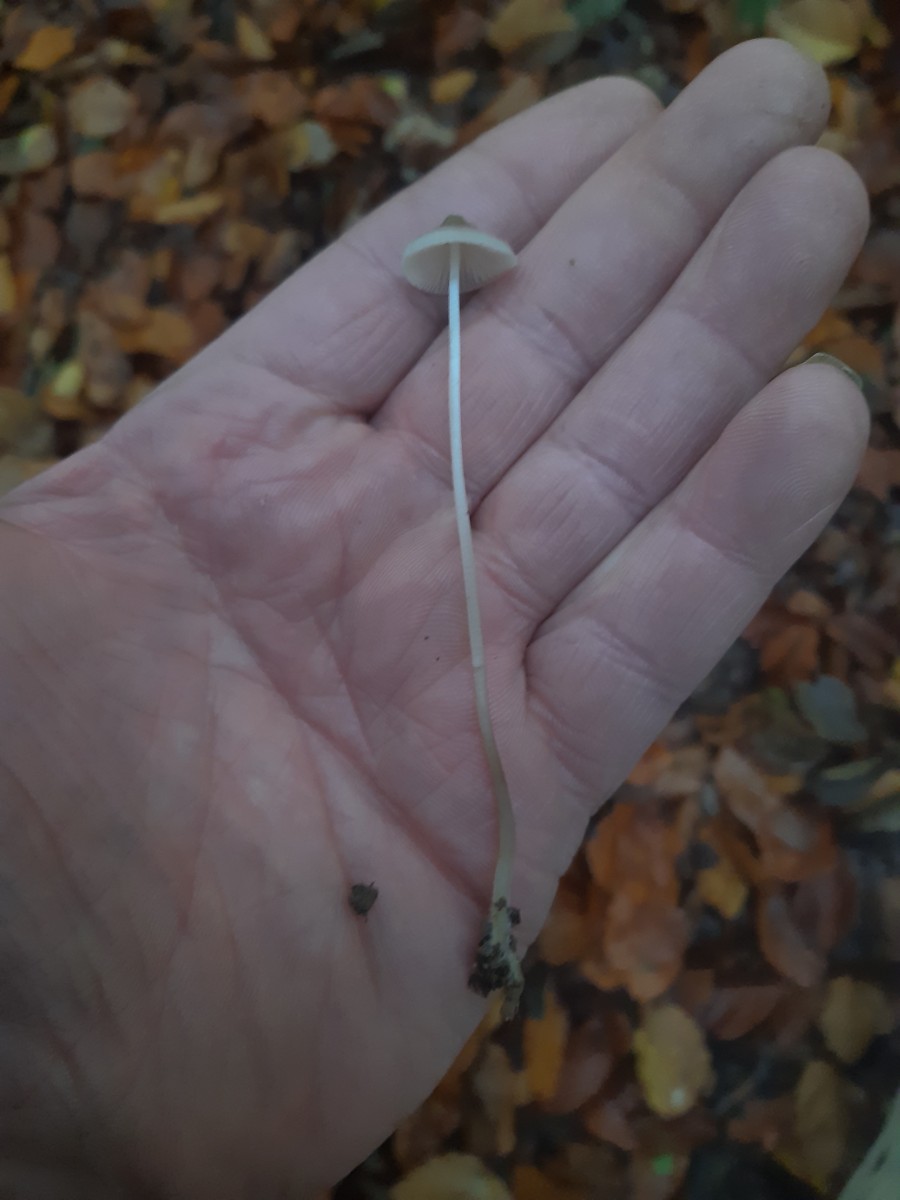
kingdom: Fungi
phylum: Basidiomycota
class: Agaricomycetes
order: Agaricales
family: Mycenaceae
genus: Mycena
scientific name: Mycena vitilis
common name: blankstokket huesvamp
